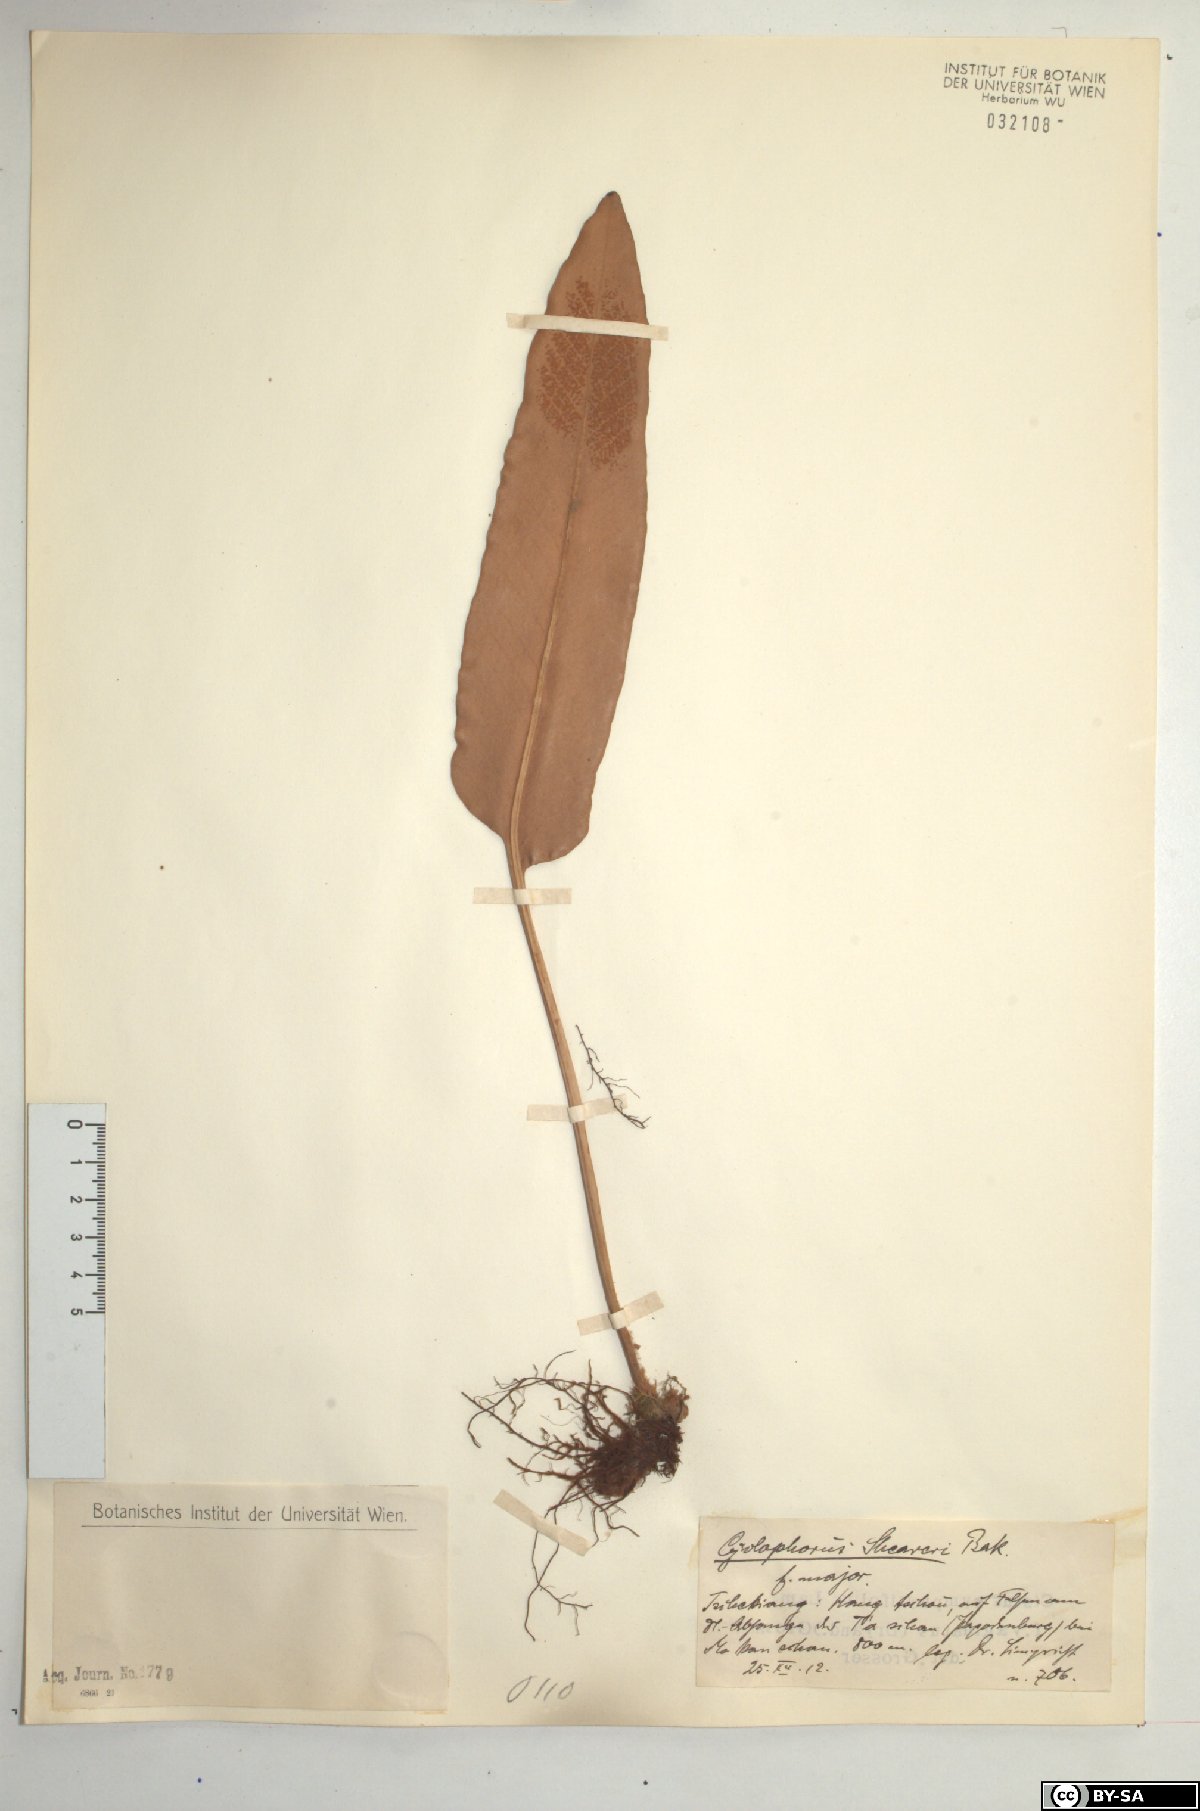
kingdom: Plantae
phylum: Tracheophyta
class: Polypodiopsida
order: Polypodiales
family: Polypodiaceae
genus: Pyrrosia
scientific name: Pyrrosia sheareri
